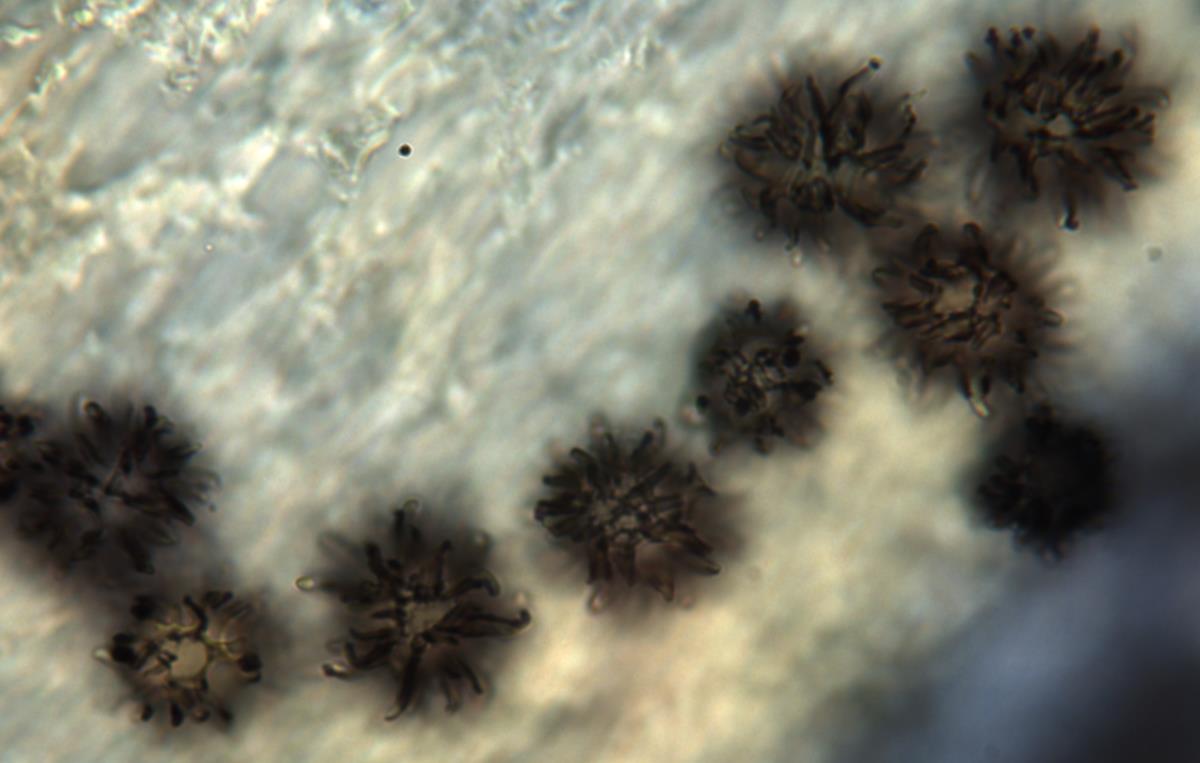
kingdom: Fungi
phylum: Basidiomycota
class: Agaricomycetes
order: Russulales
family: Russulaceae
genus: Russula
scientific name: Russula osphranticarpa
